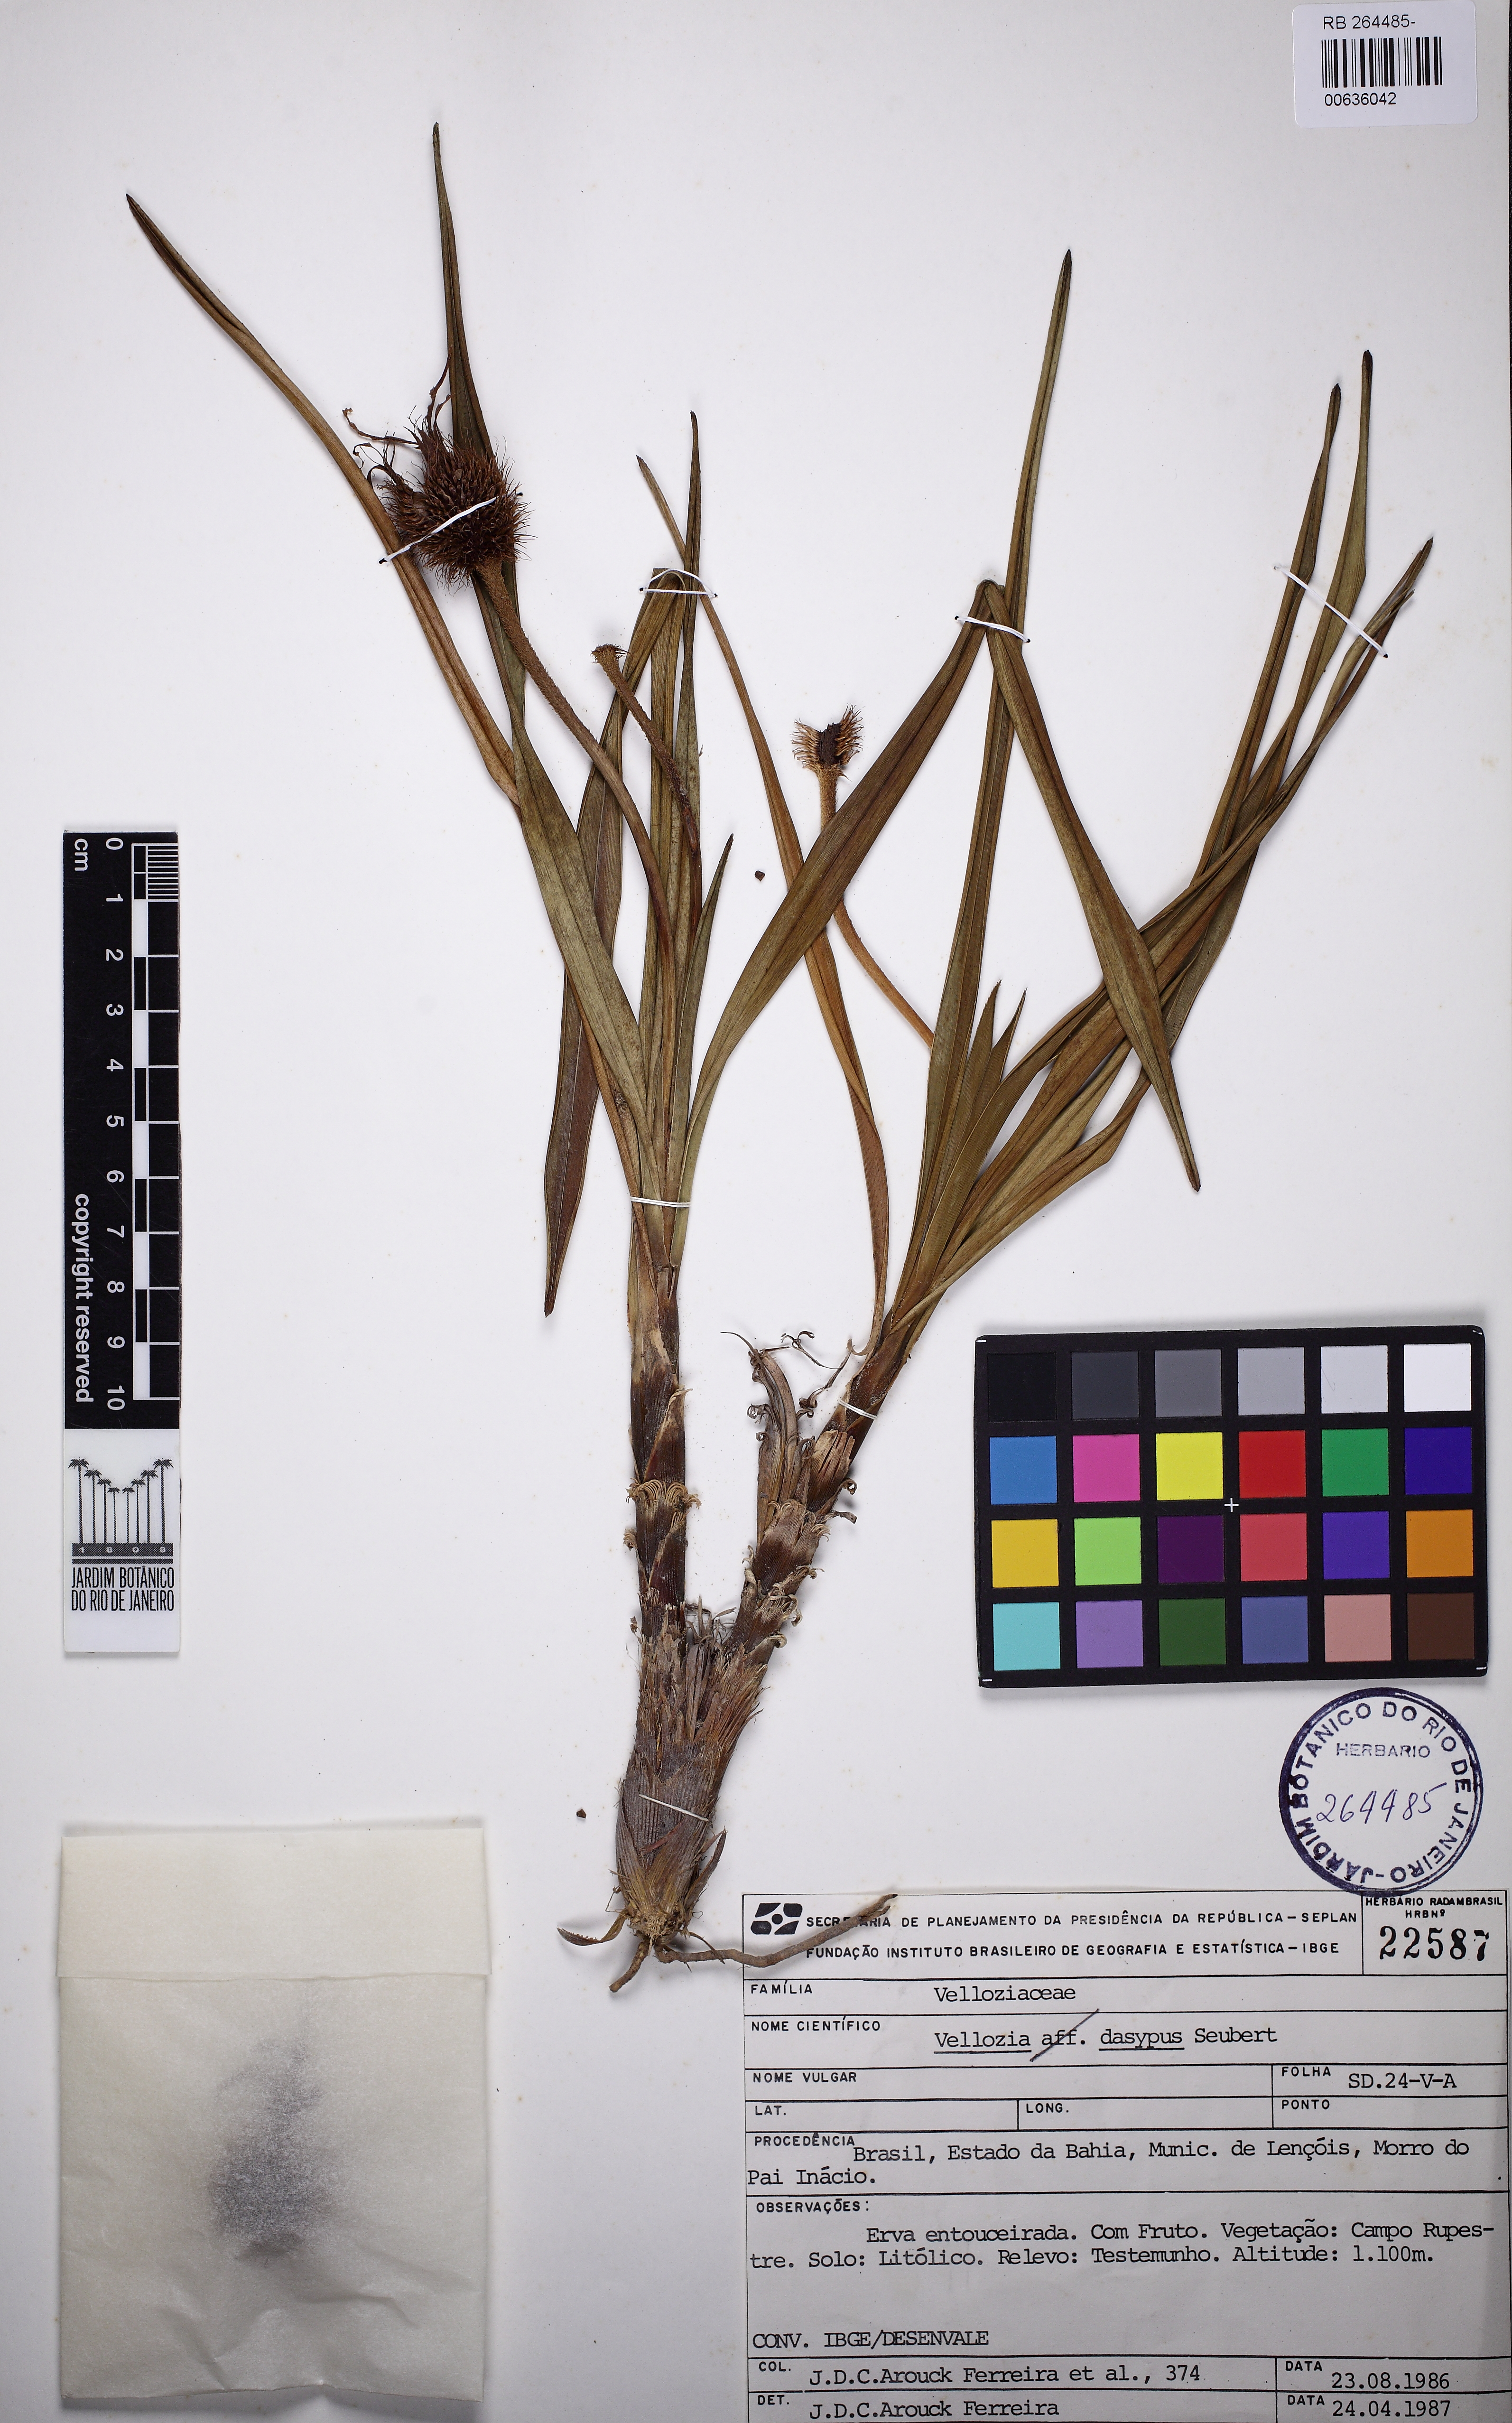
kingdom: Plantae
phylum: Tracheophyta
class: Liliopsida
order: Pandanales
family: Velloziaceae
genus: Vellozia
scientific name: Vellozia dasypus
